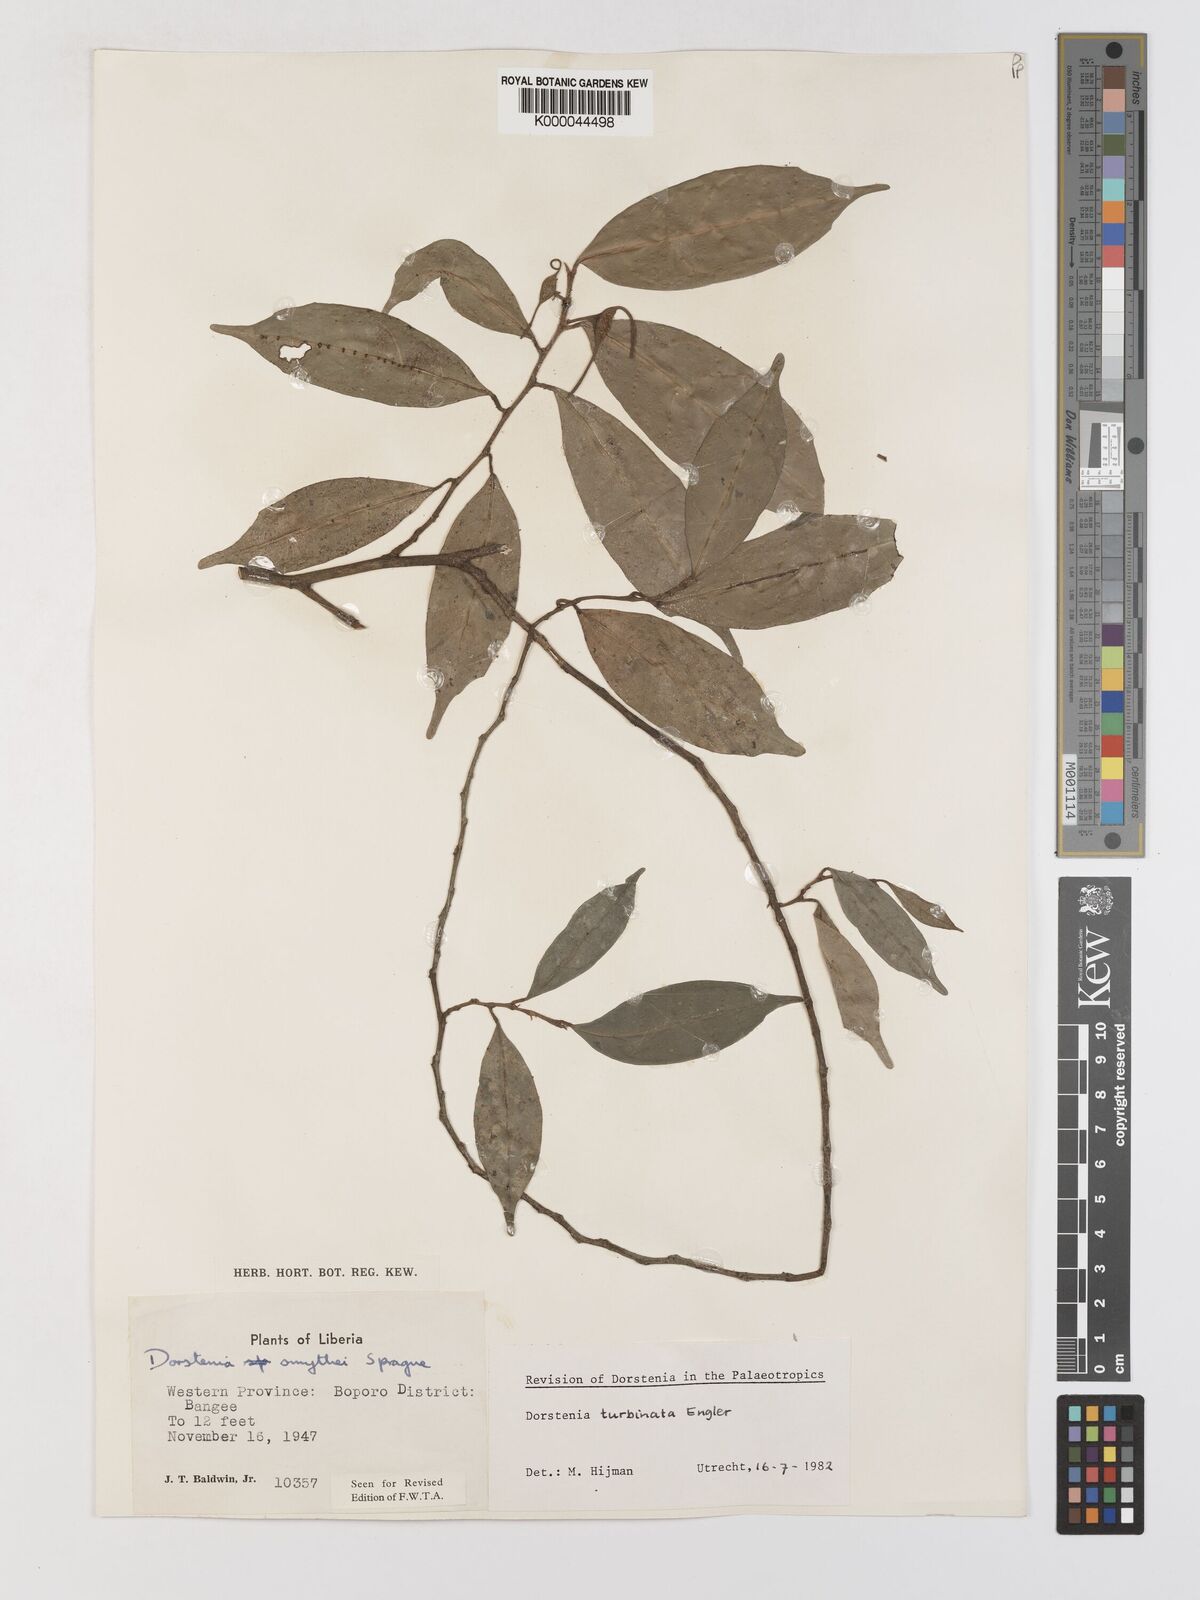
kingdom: Plantae
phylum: Tracheophyta
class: Magnoliopsida
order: Rosales
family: Moraceae
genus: Hijmania
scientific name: Hijmania turbinata
